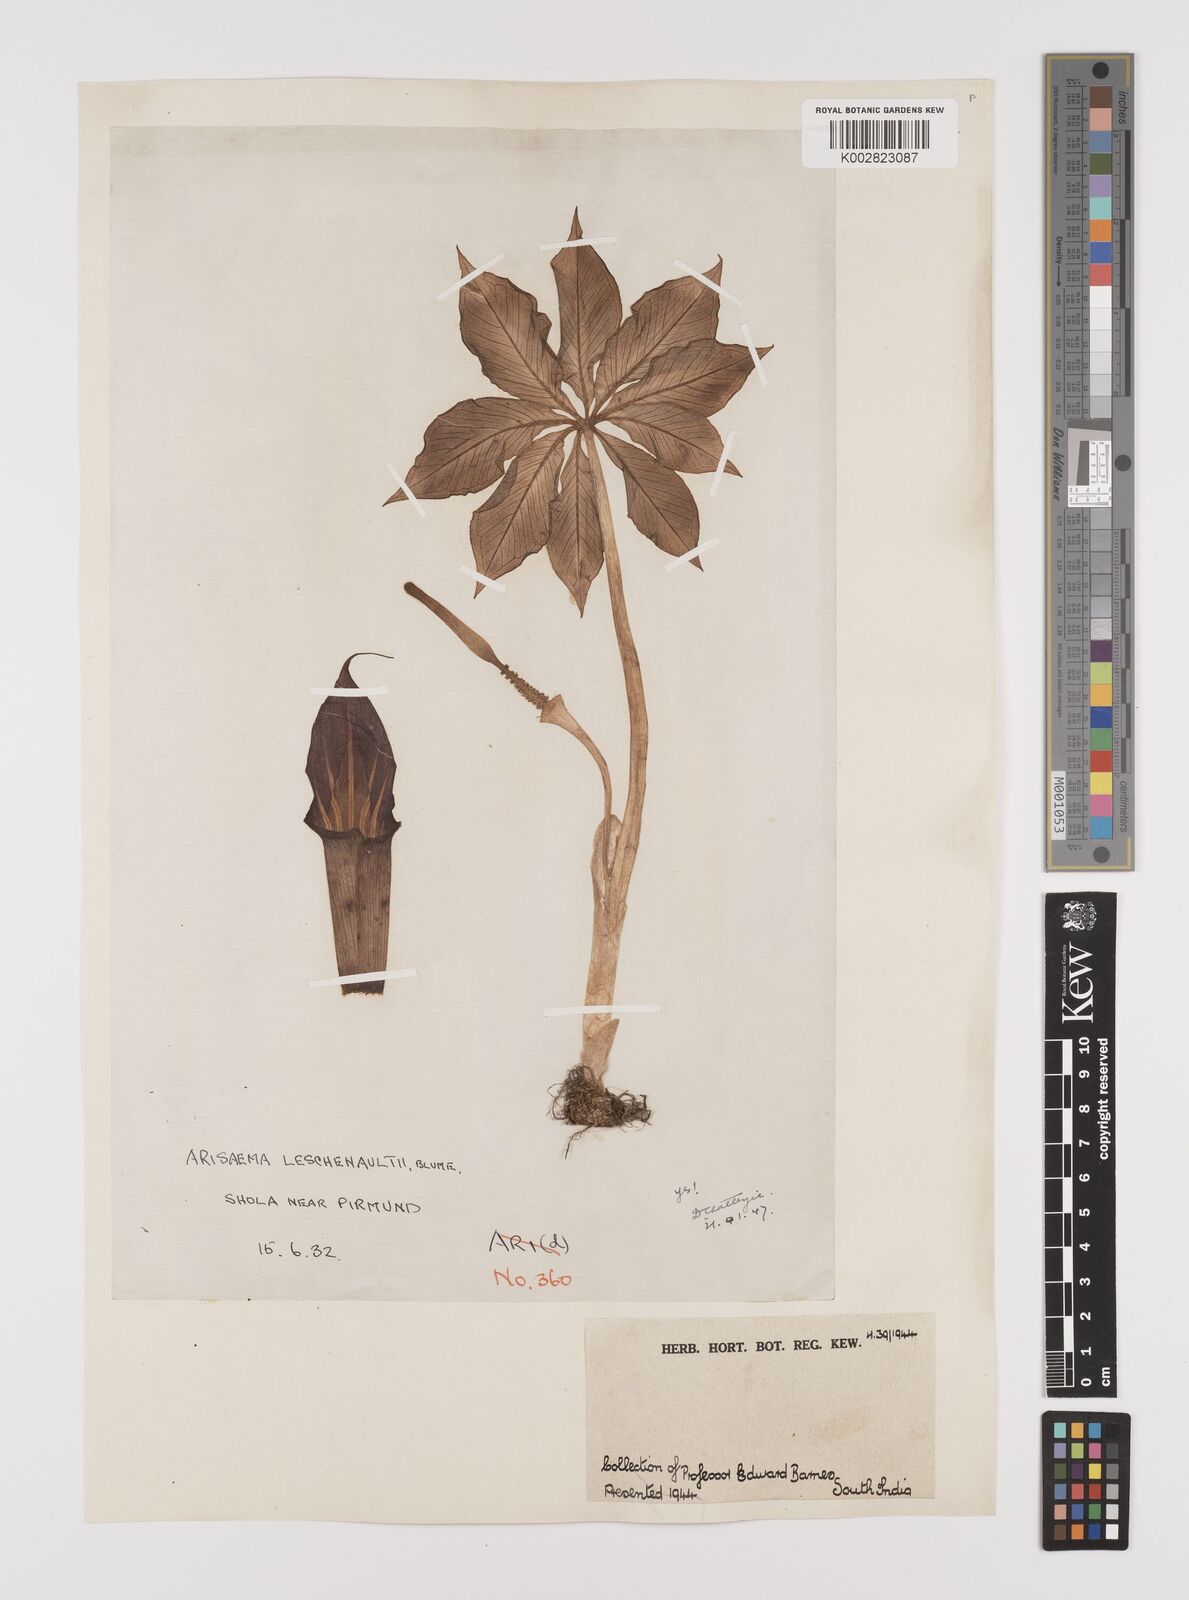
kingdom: Plantae
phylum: Tracheophyta
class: Liliopsida
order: Alismatales
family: Araceae
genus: Arisaema
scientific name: Arisaema leschenaultii
